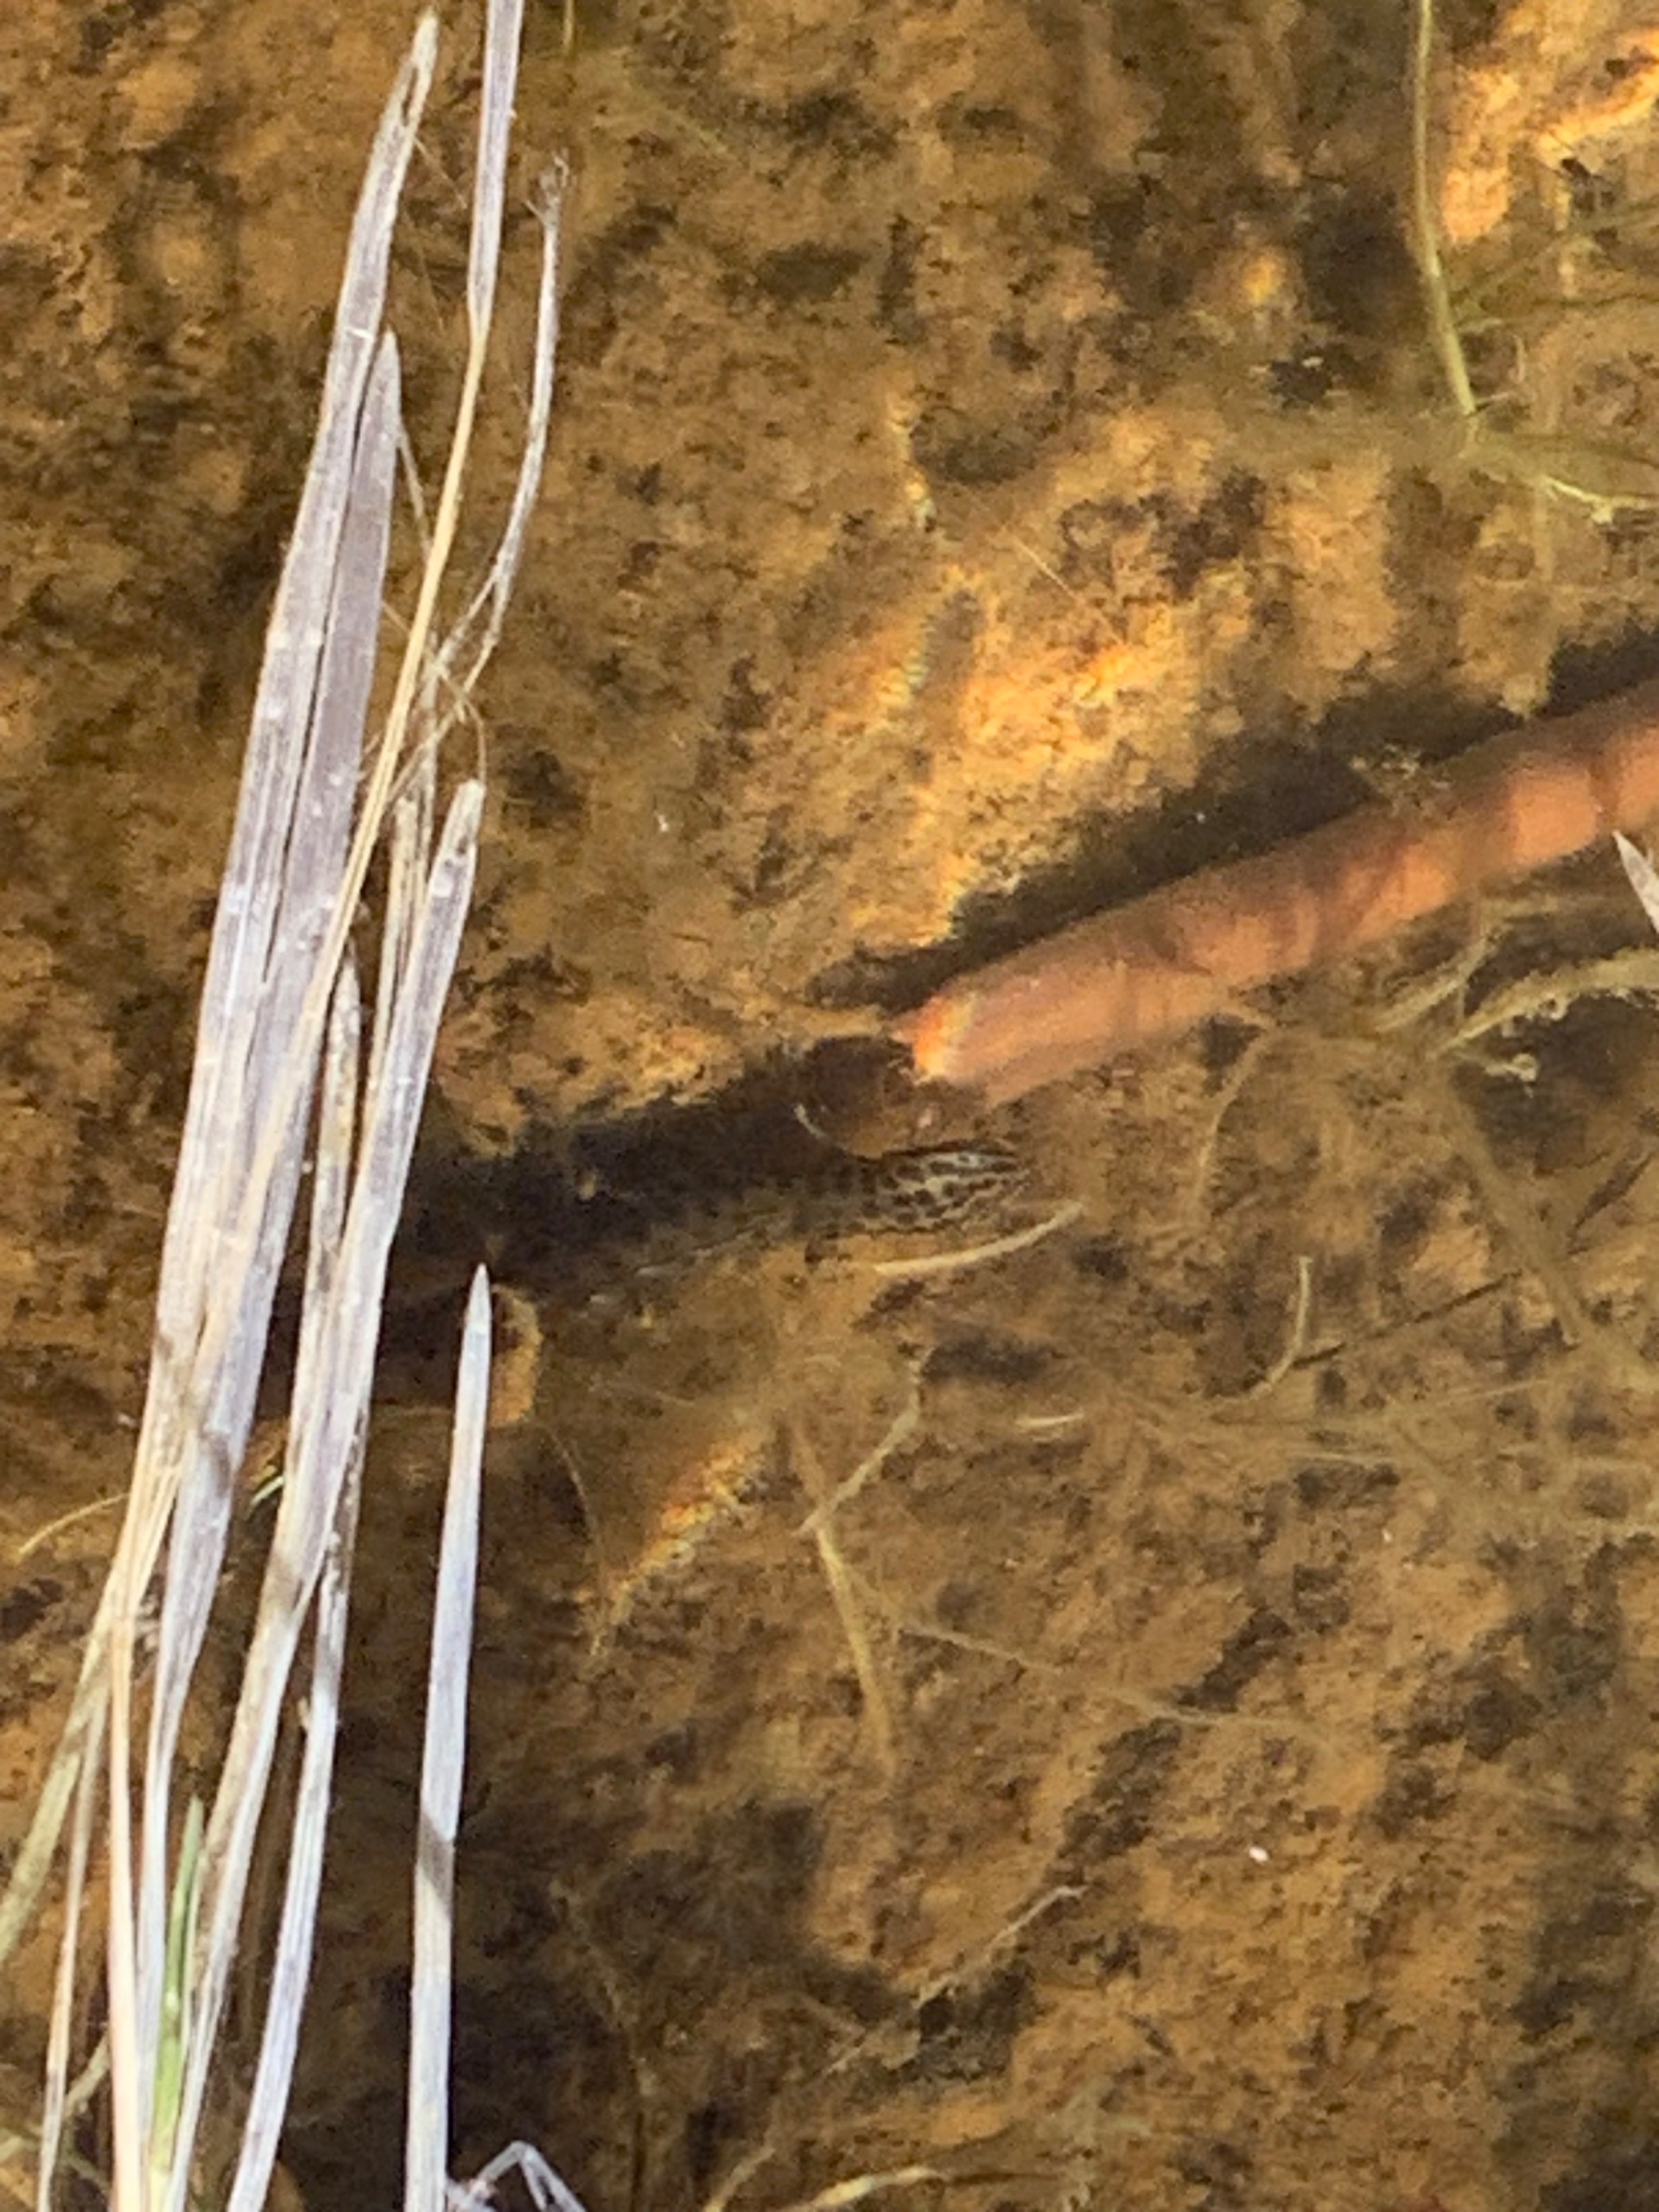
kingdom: Animalia
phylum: Chordata
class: Amphibia
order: Caudata
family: Salamandridae
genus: Lissotriton
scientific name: Lissotriton vulgaris
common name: Lille vandsalamander
